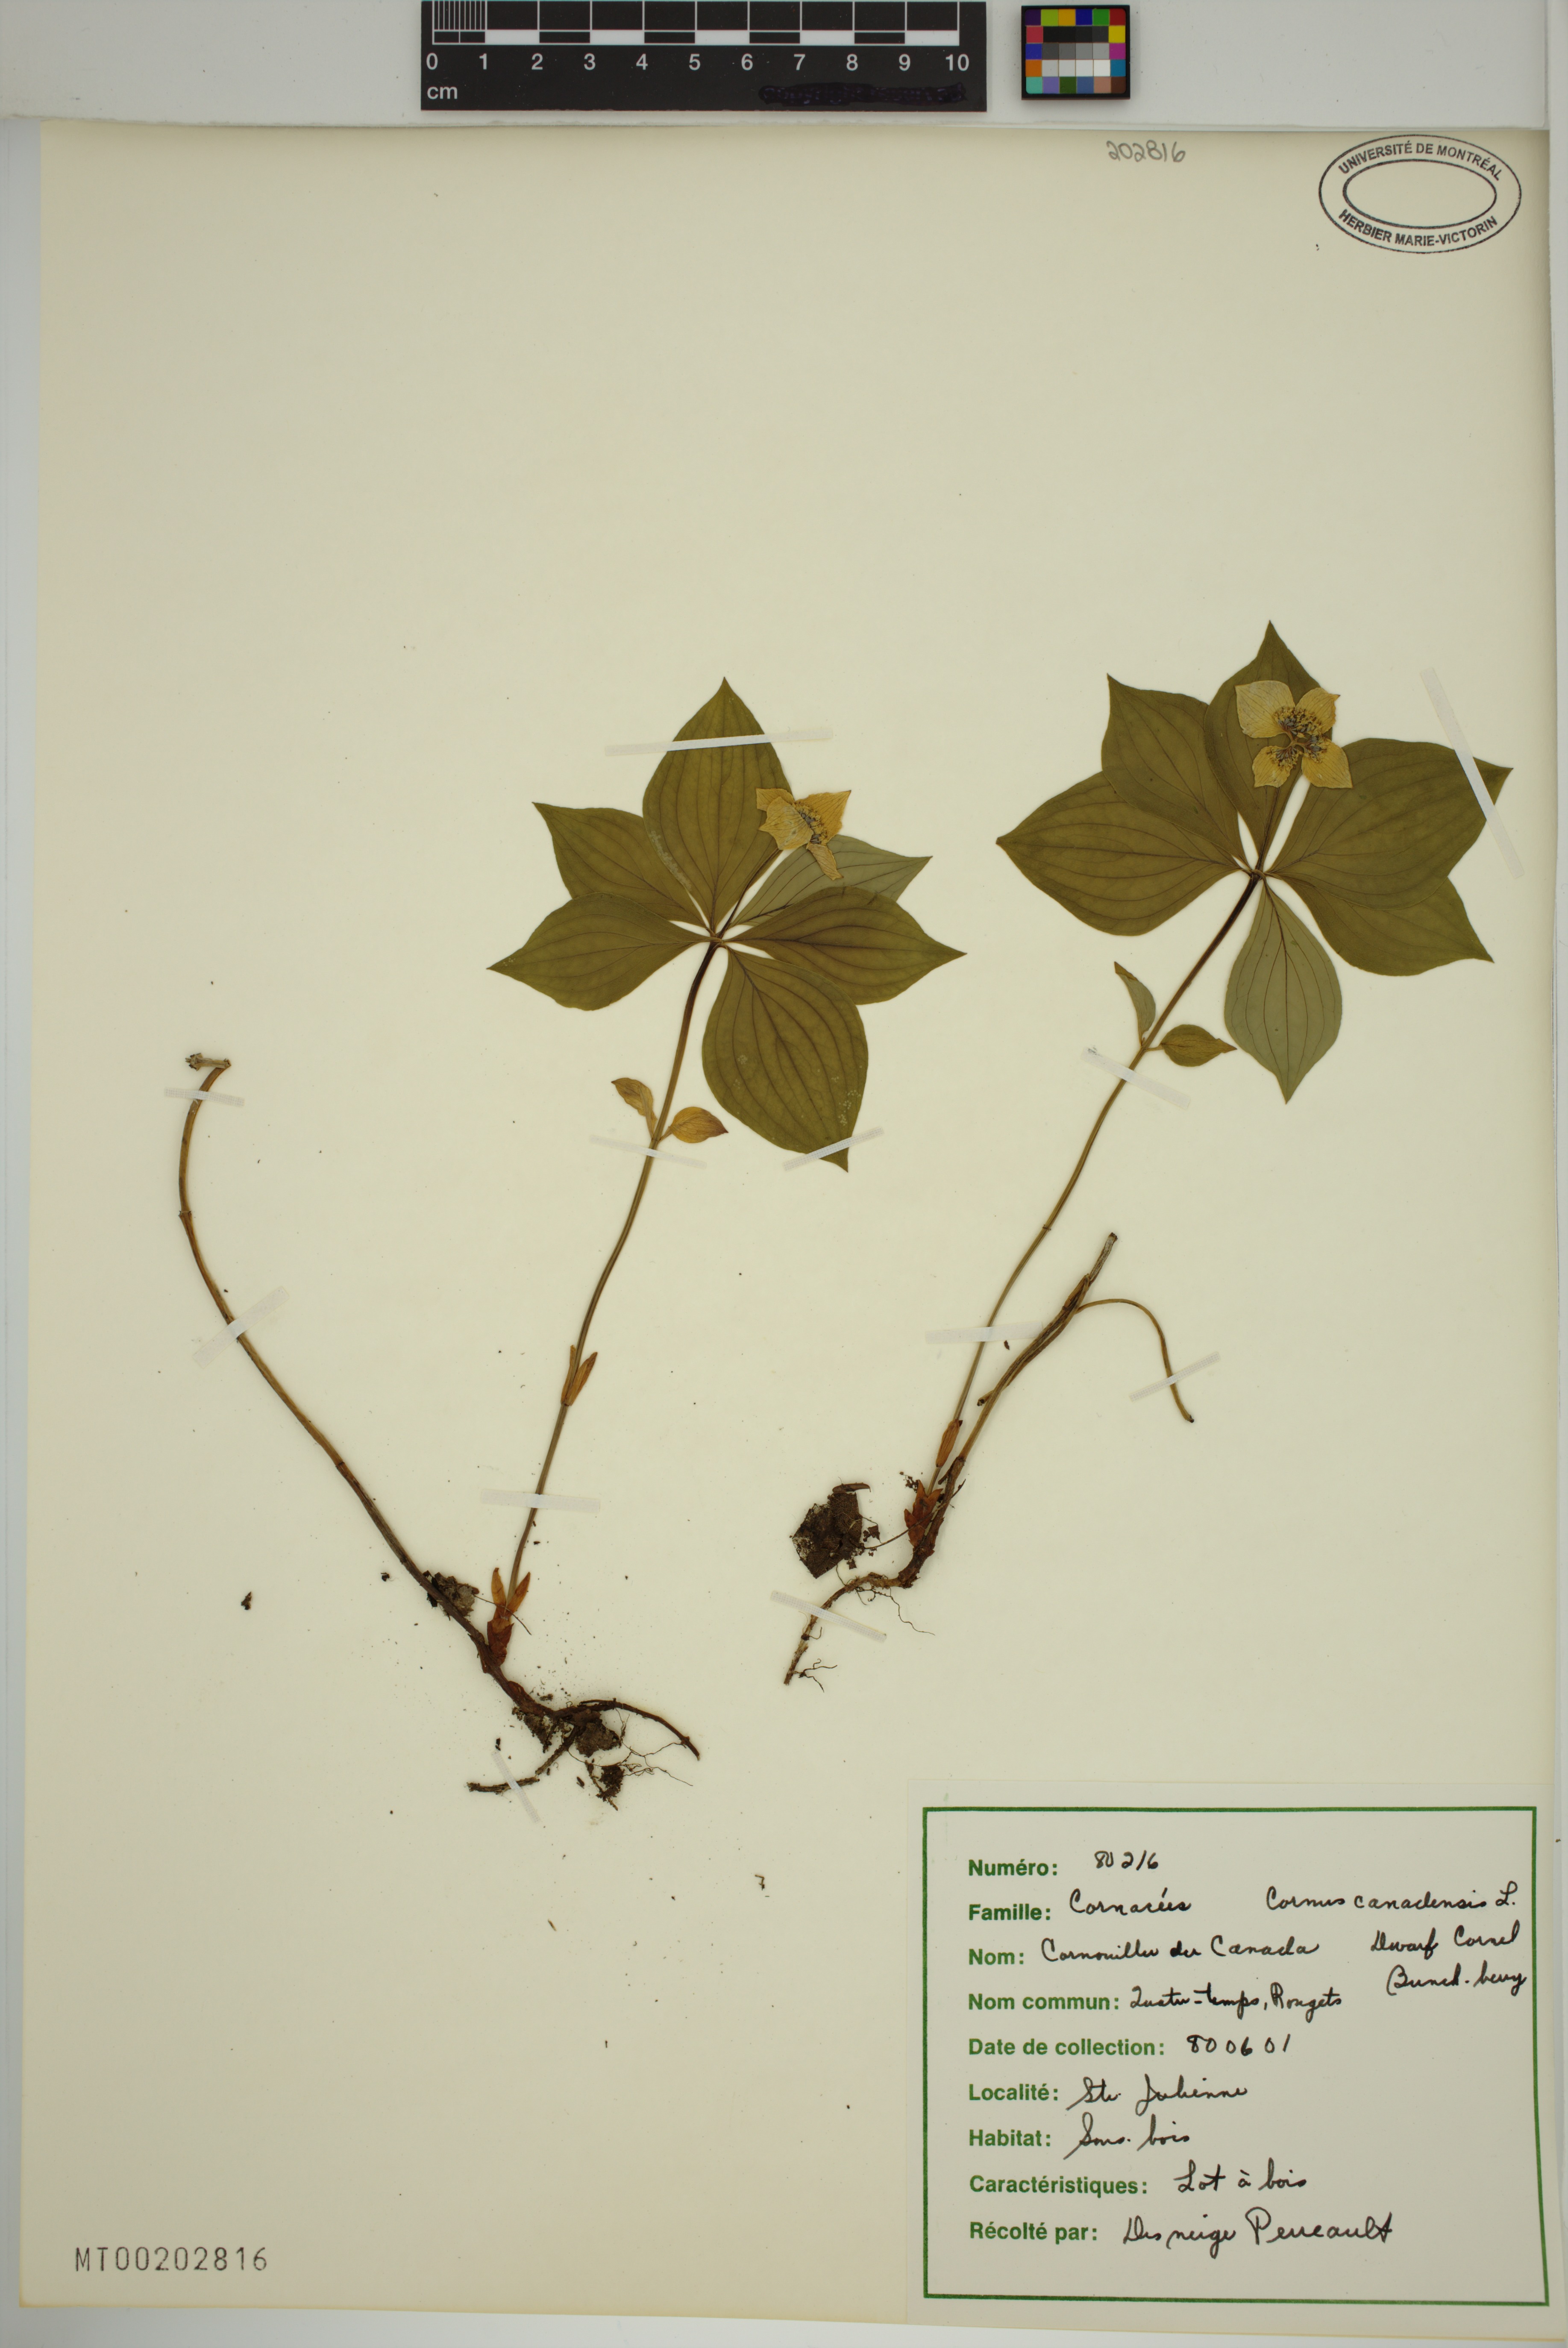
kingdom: Plantae
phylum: Tracheophyta
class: Magnoliopsida
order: Cornales
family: Cornaceae
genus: Cornus
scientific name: Cornus canadensis
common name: Creeping dogwood
